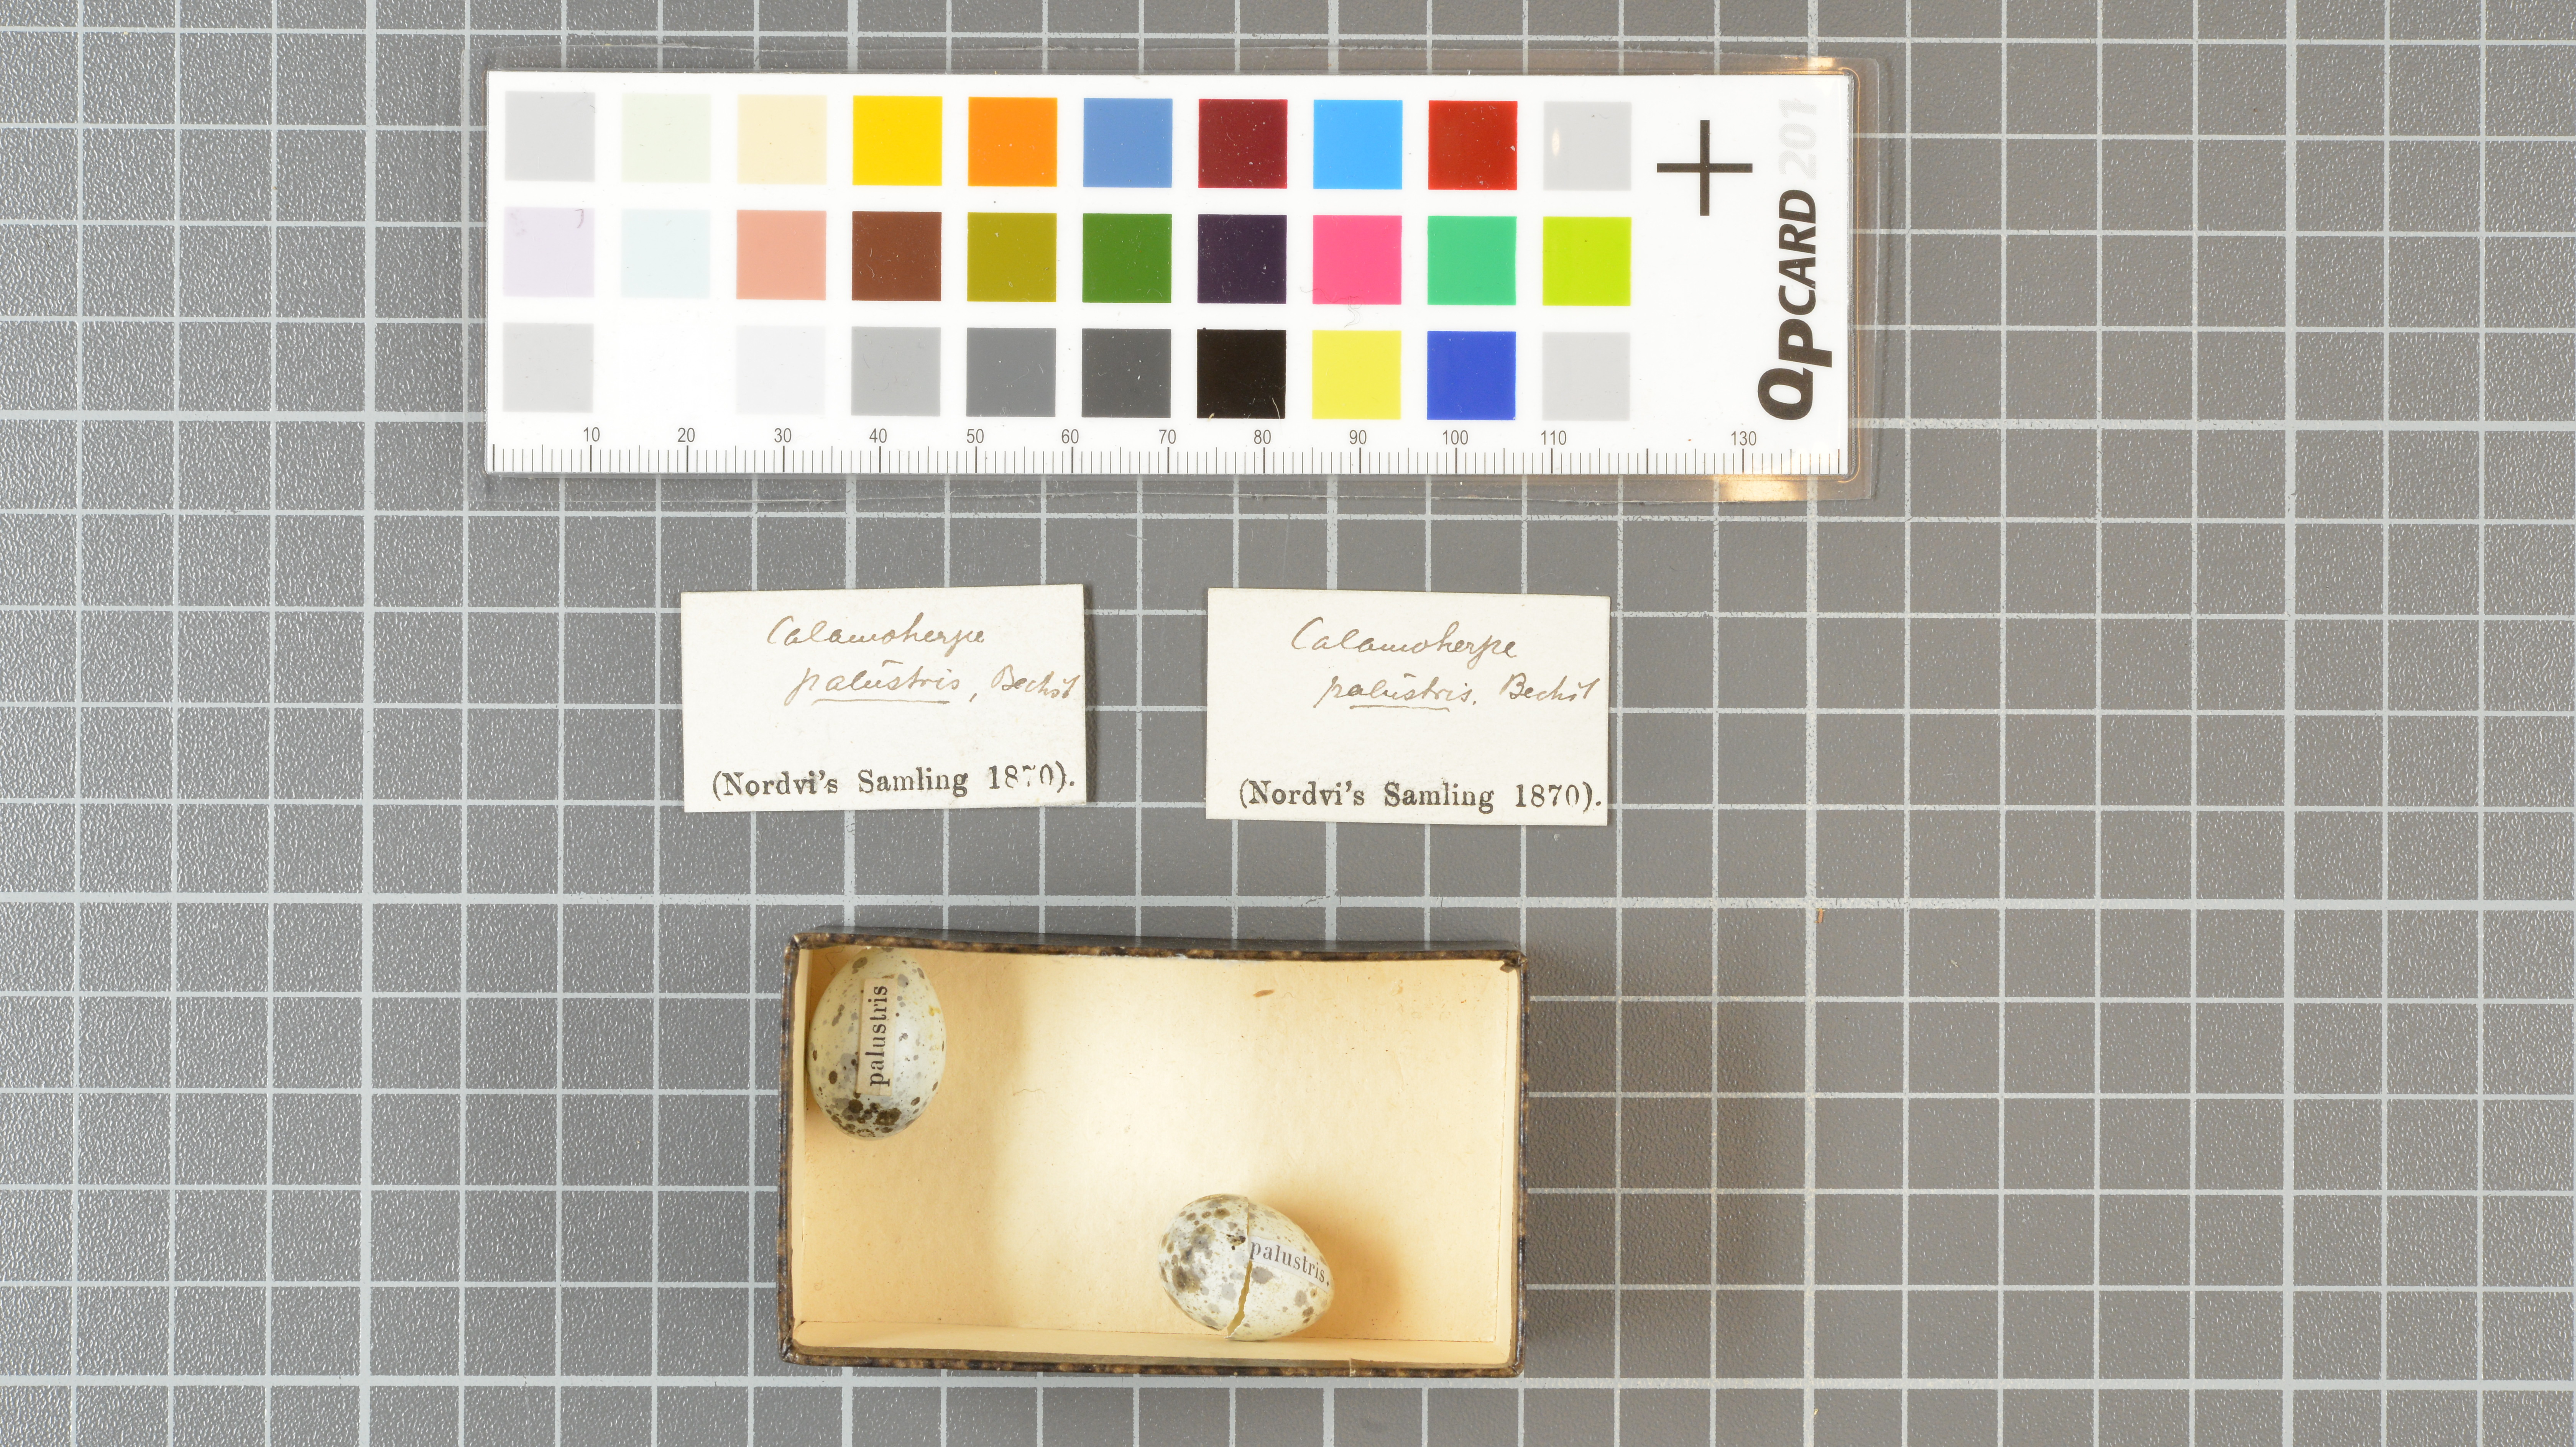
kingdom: Animalia
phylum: Chordata
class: Aves
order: Passeriformes
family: Acrocephalidae
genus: Acrocephalus
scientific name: Acrocephalus palustris
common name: Marsh warbler
